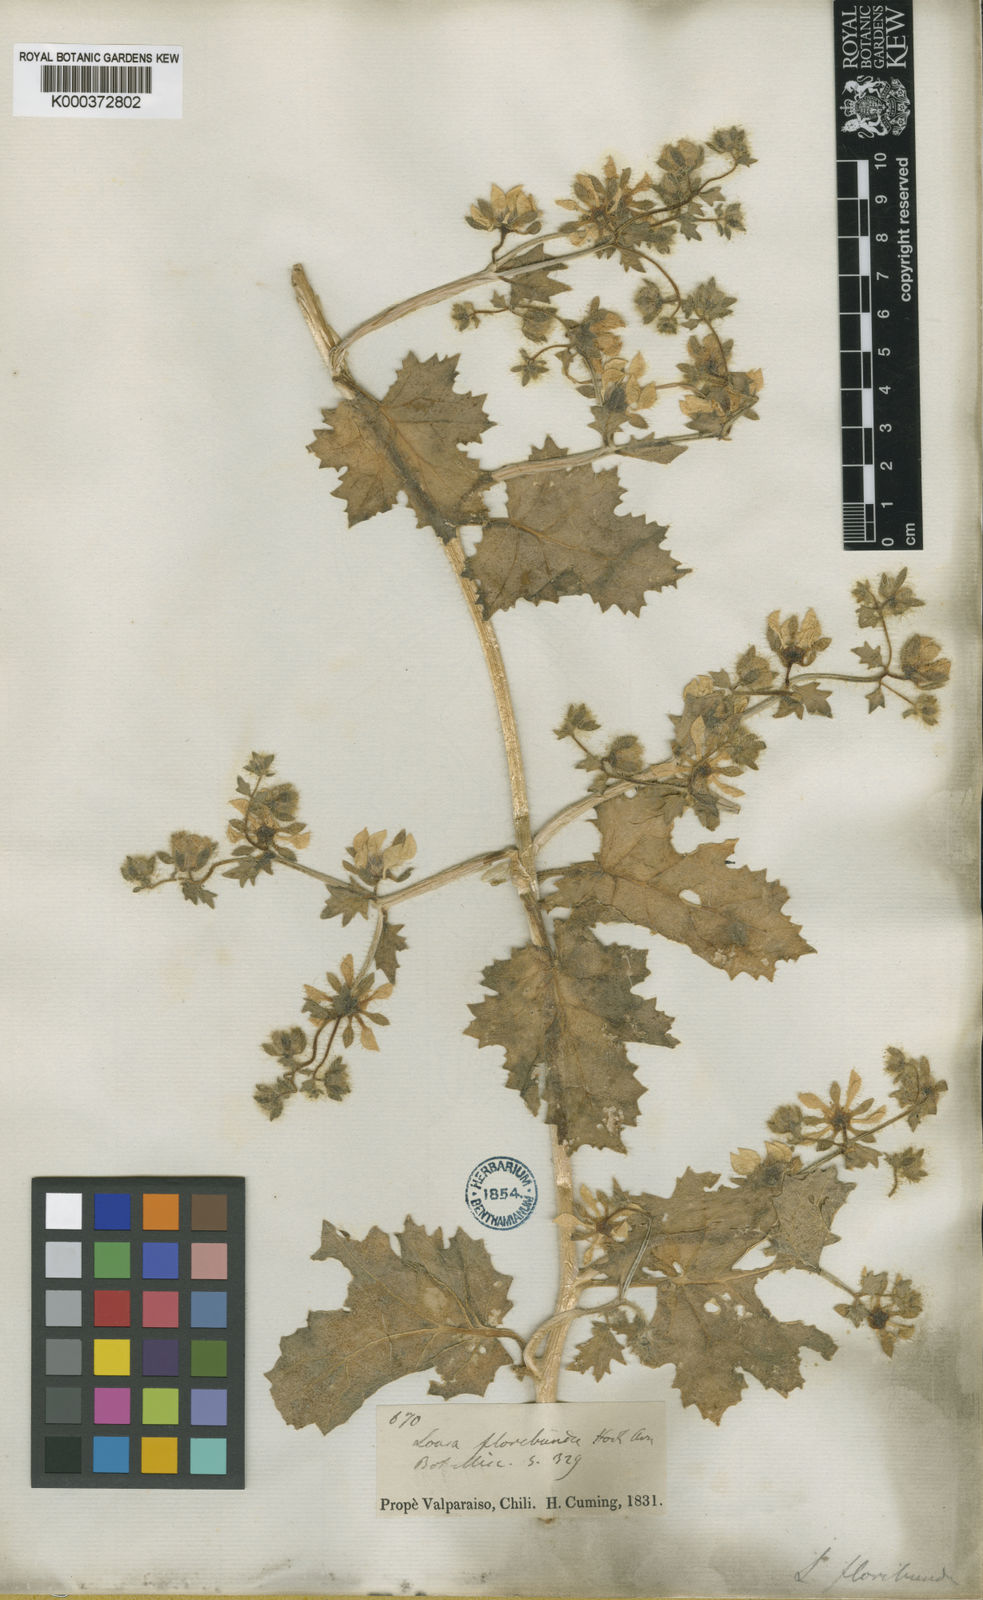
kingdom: Plantae
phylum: Tracheophyta
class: Magnoliopsida
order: Cornales
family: Loasaceae
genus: Loasa
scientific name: Loasa floribunda
